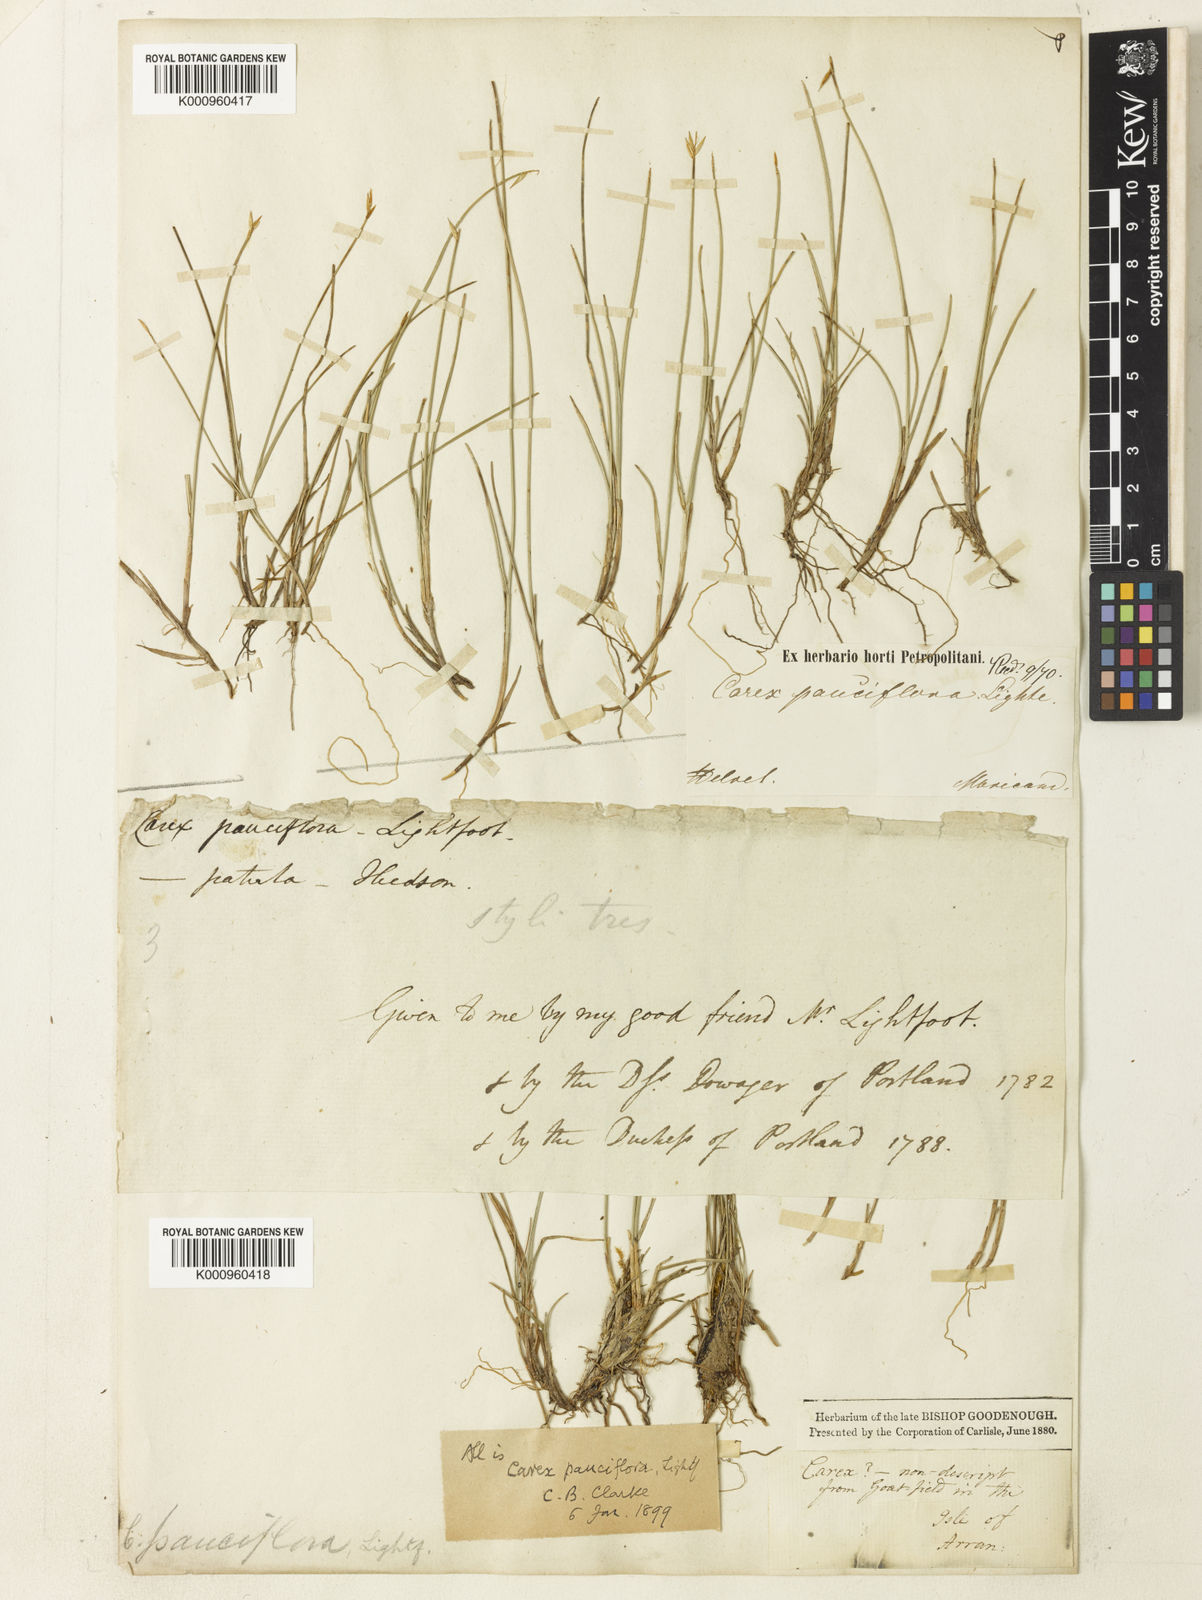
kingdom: Plantae
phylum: Tracheophyta
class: Liliopsida
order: Poales
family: Cyperaceae
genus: Carex
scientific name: Carex pauciflora
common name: Few-flowered sedge
